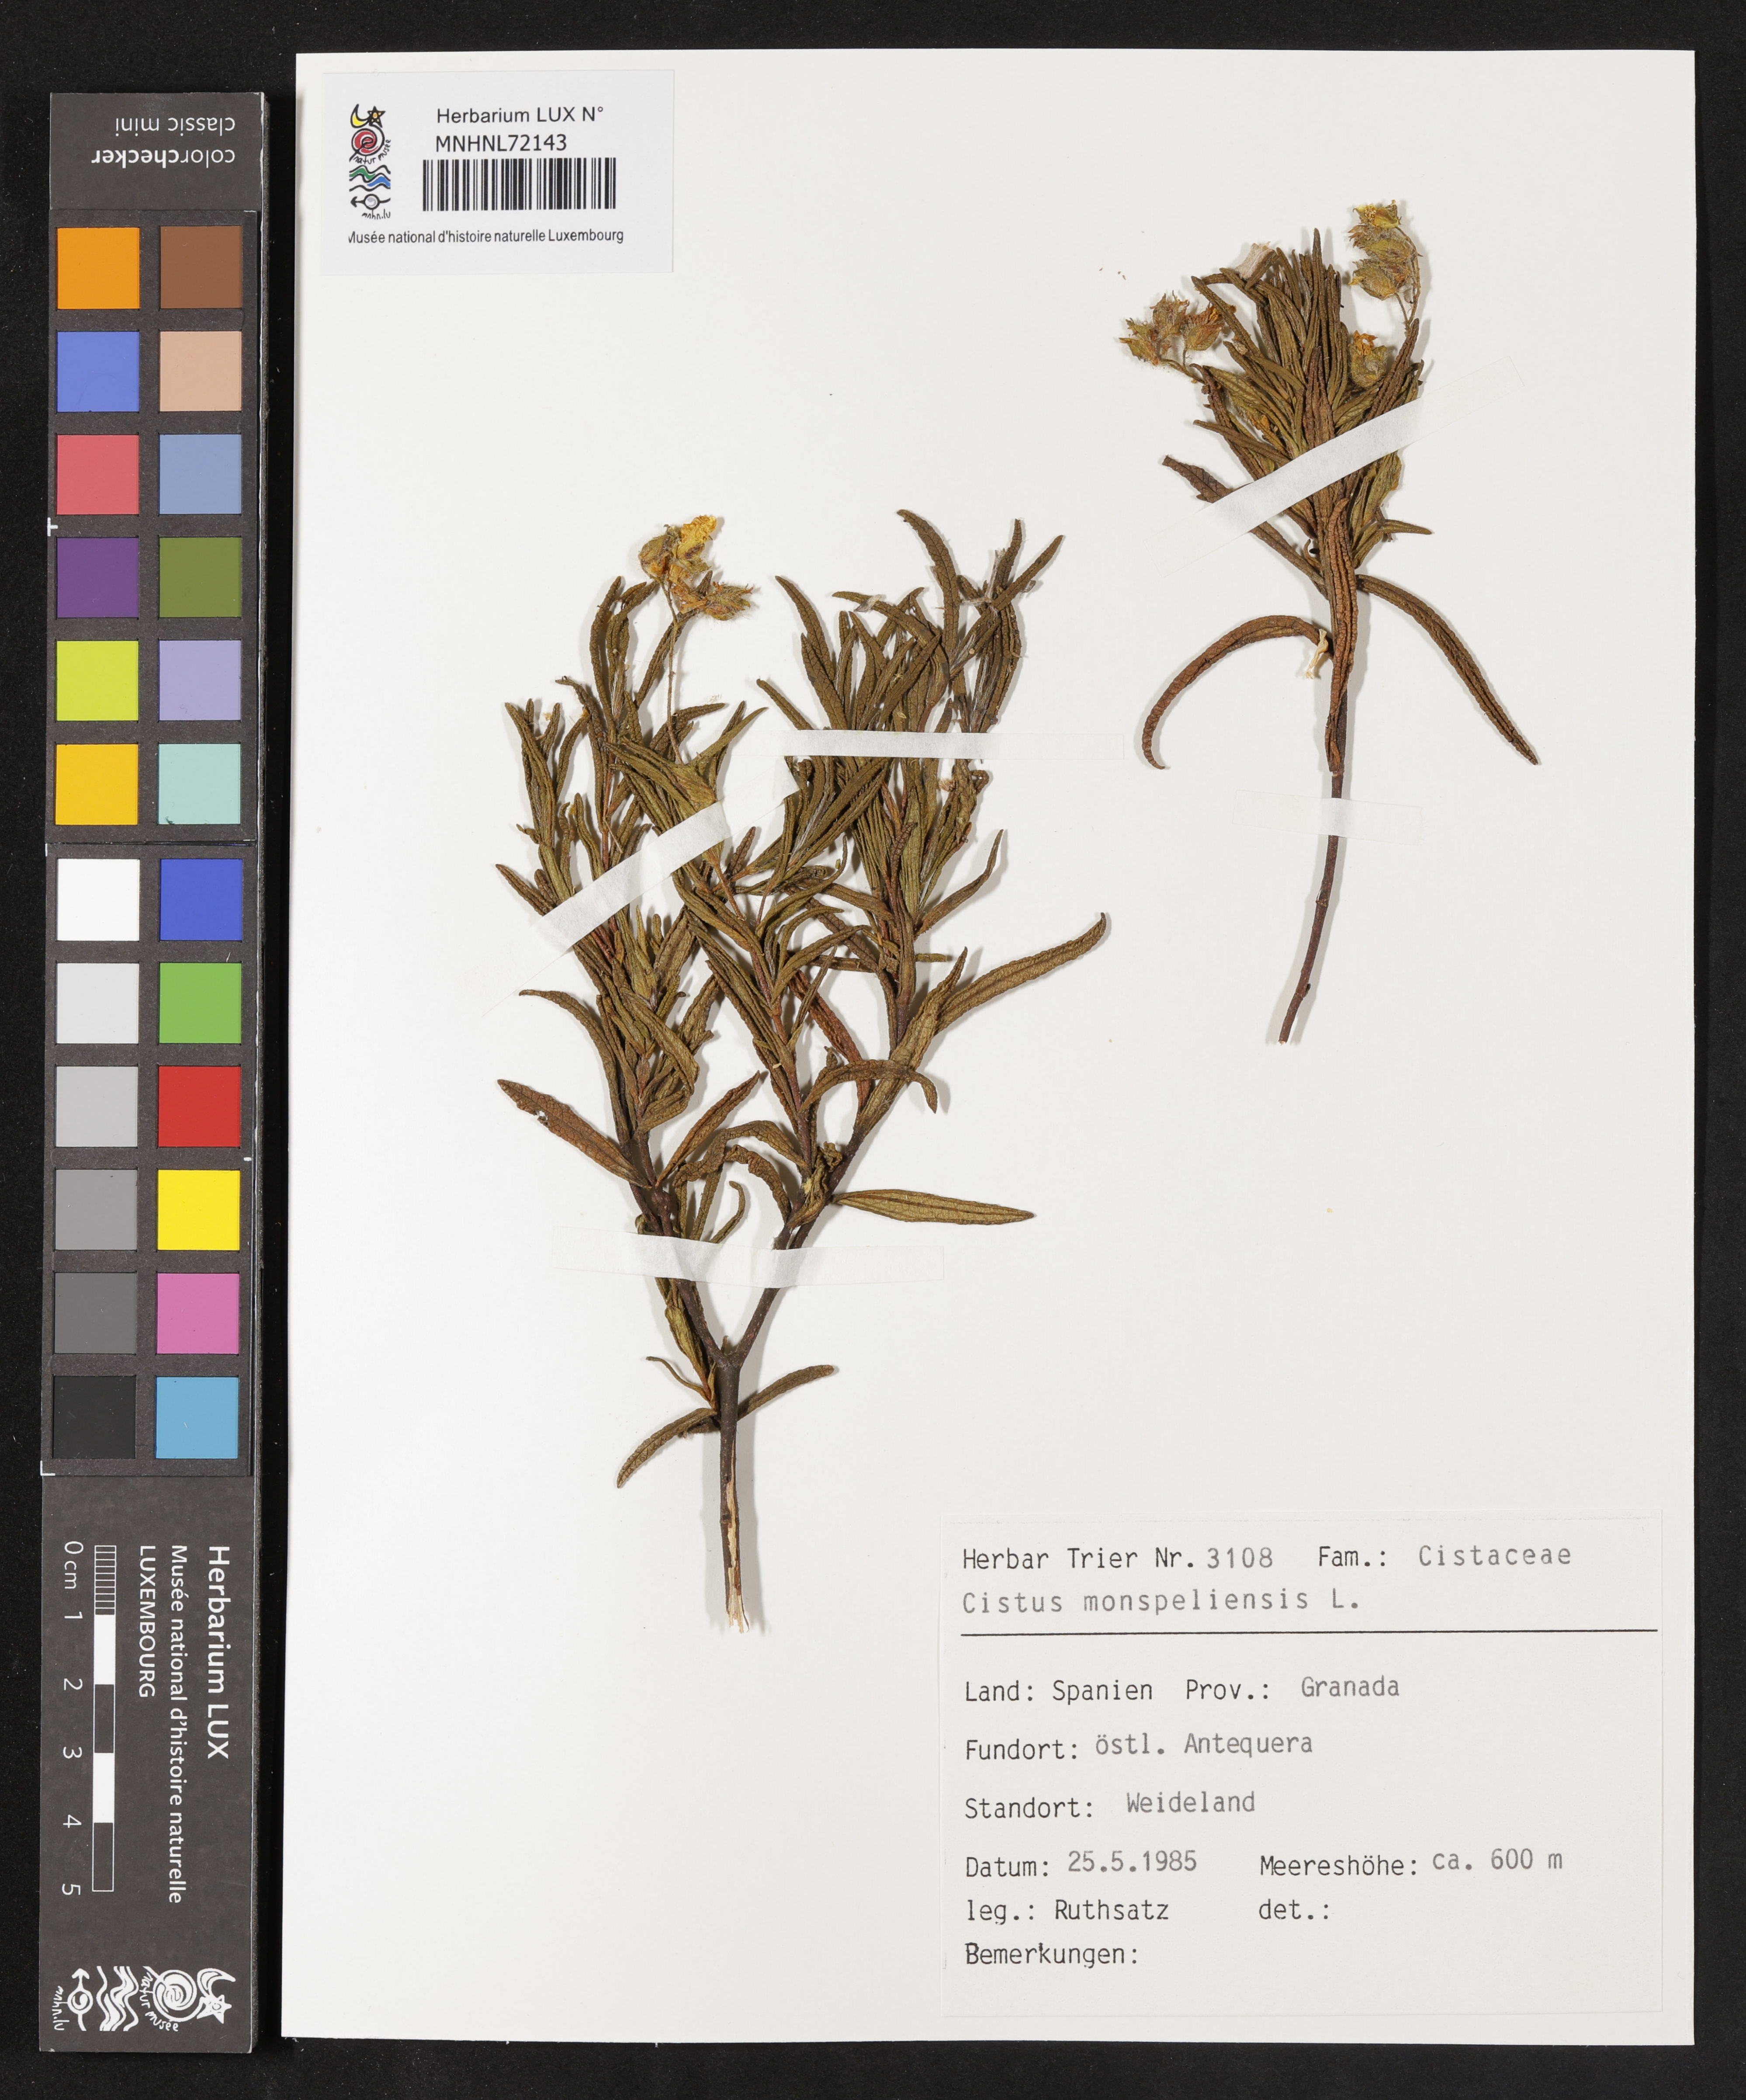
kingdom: Plantae
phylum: Tracheophyta
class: Magnoliopsida
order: Malvales
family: Cistaceae
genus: Cistus
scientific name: Cistus monspeliensis
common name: Montpelier cistus
